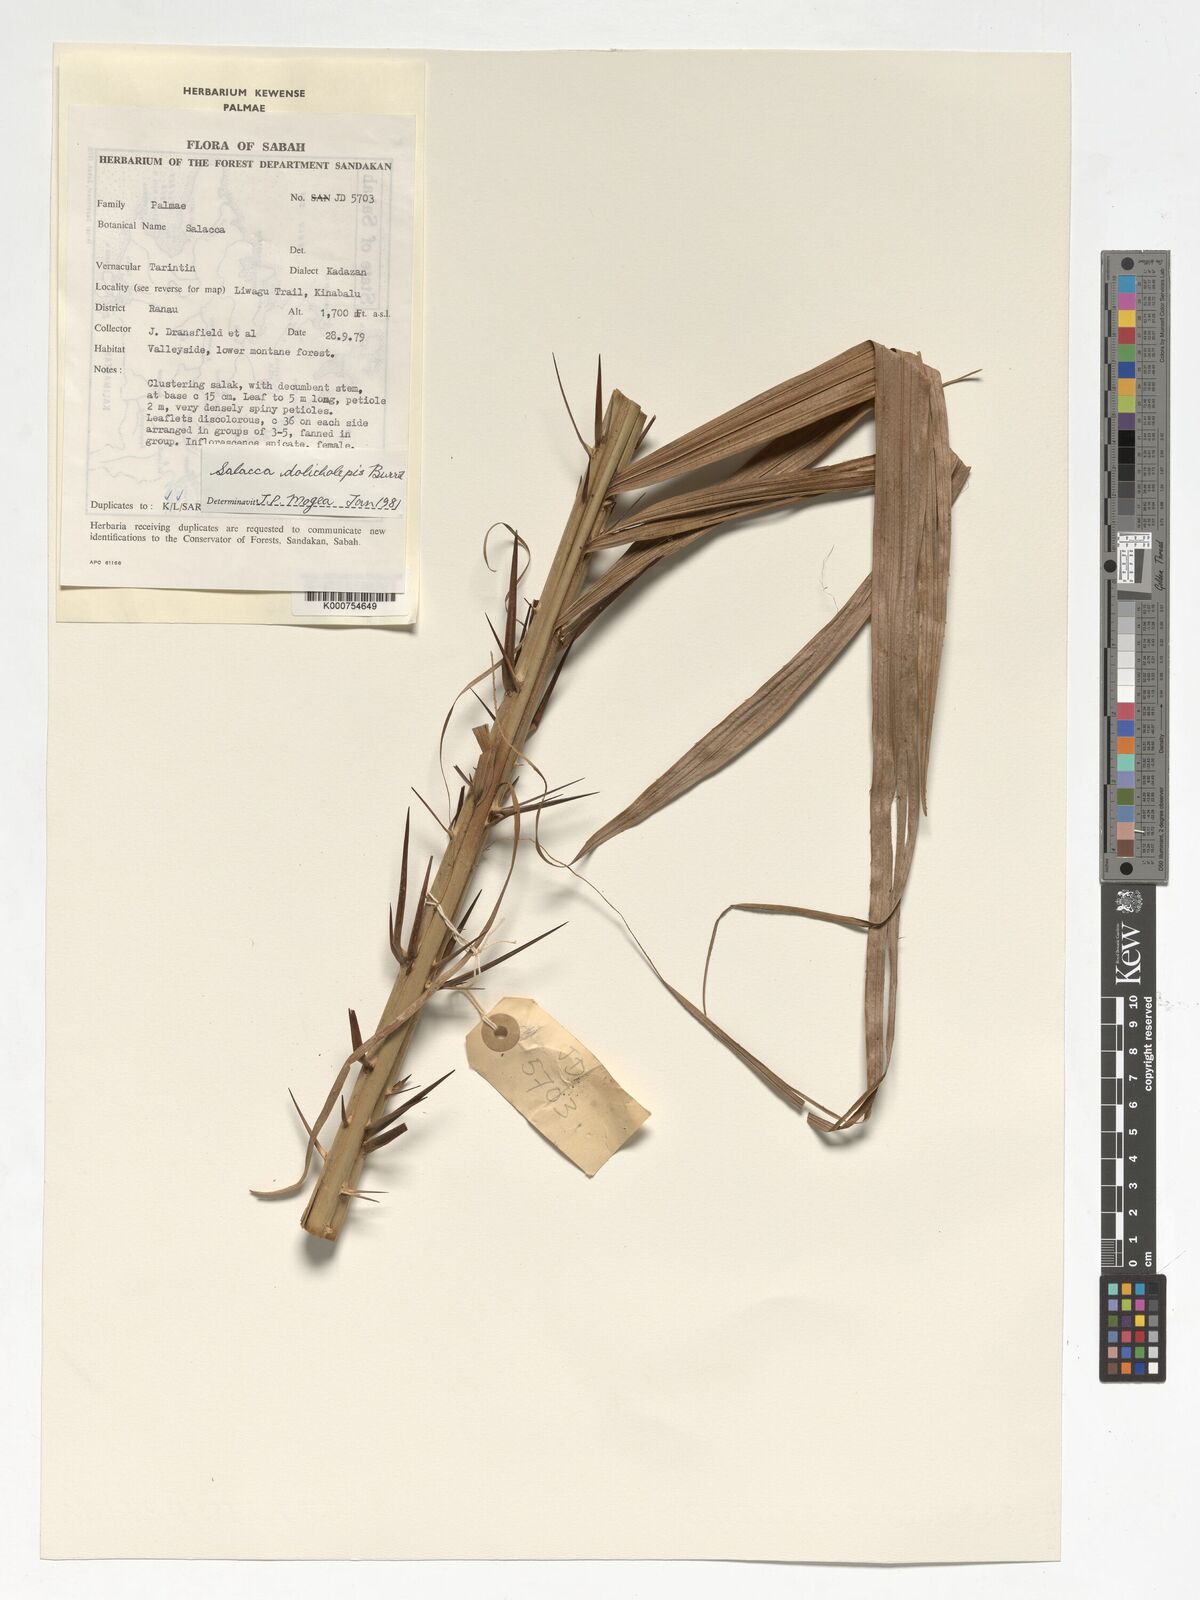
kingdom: Plantae
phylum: Tracheophyta
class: Liliopsida
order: Arecales
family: Arecaceae
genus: Salacca
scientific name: Salacca dolicholepis
